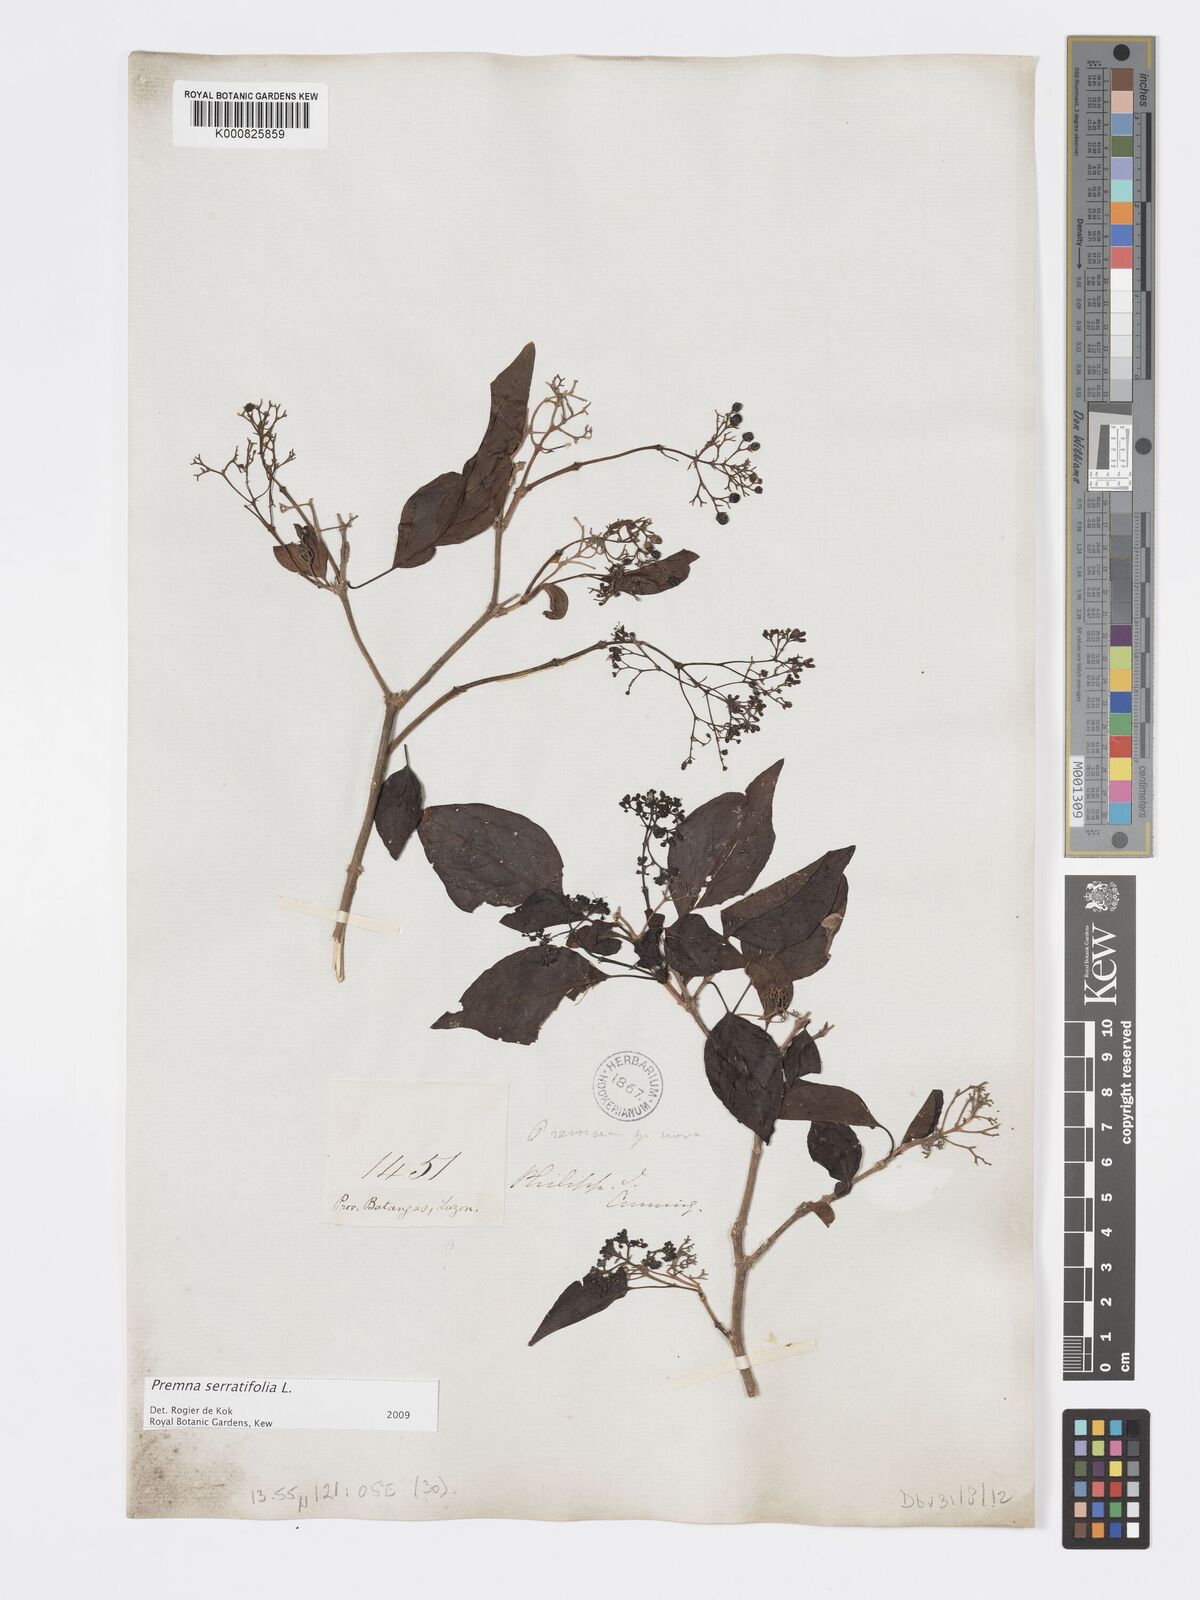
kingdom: Plantae
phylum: Tracheophyta
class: Magnoliopsida
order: Lamiales
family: Lamiaceae
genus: Premna
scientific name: Premna serratifolia
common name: Bastard guelder
